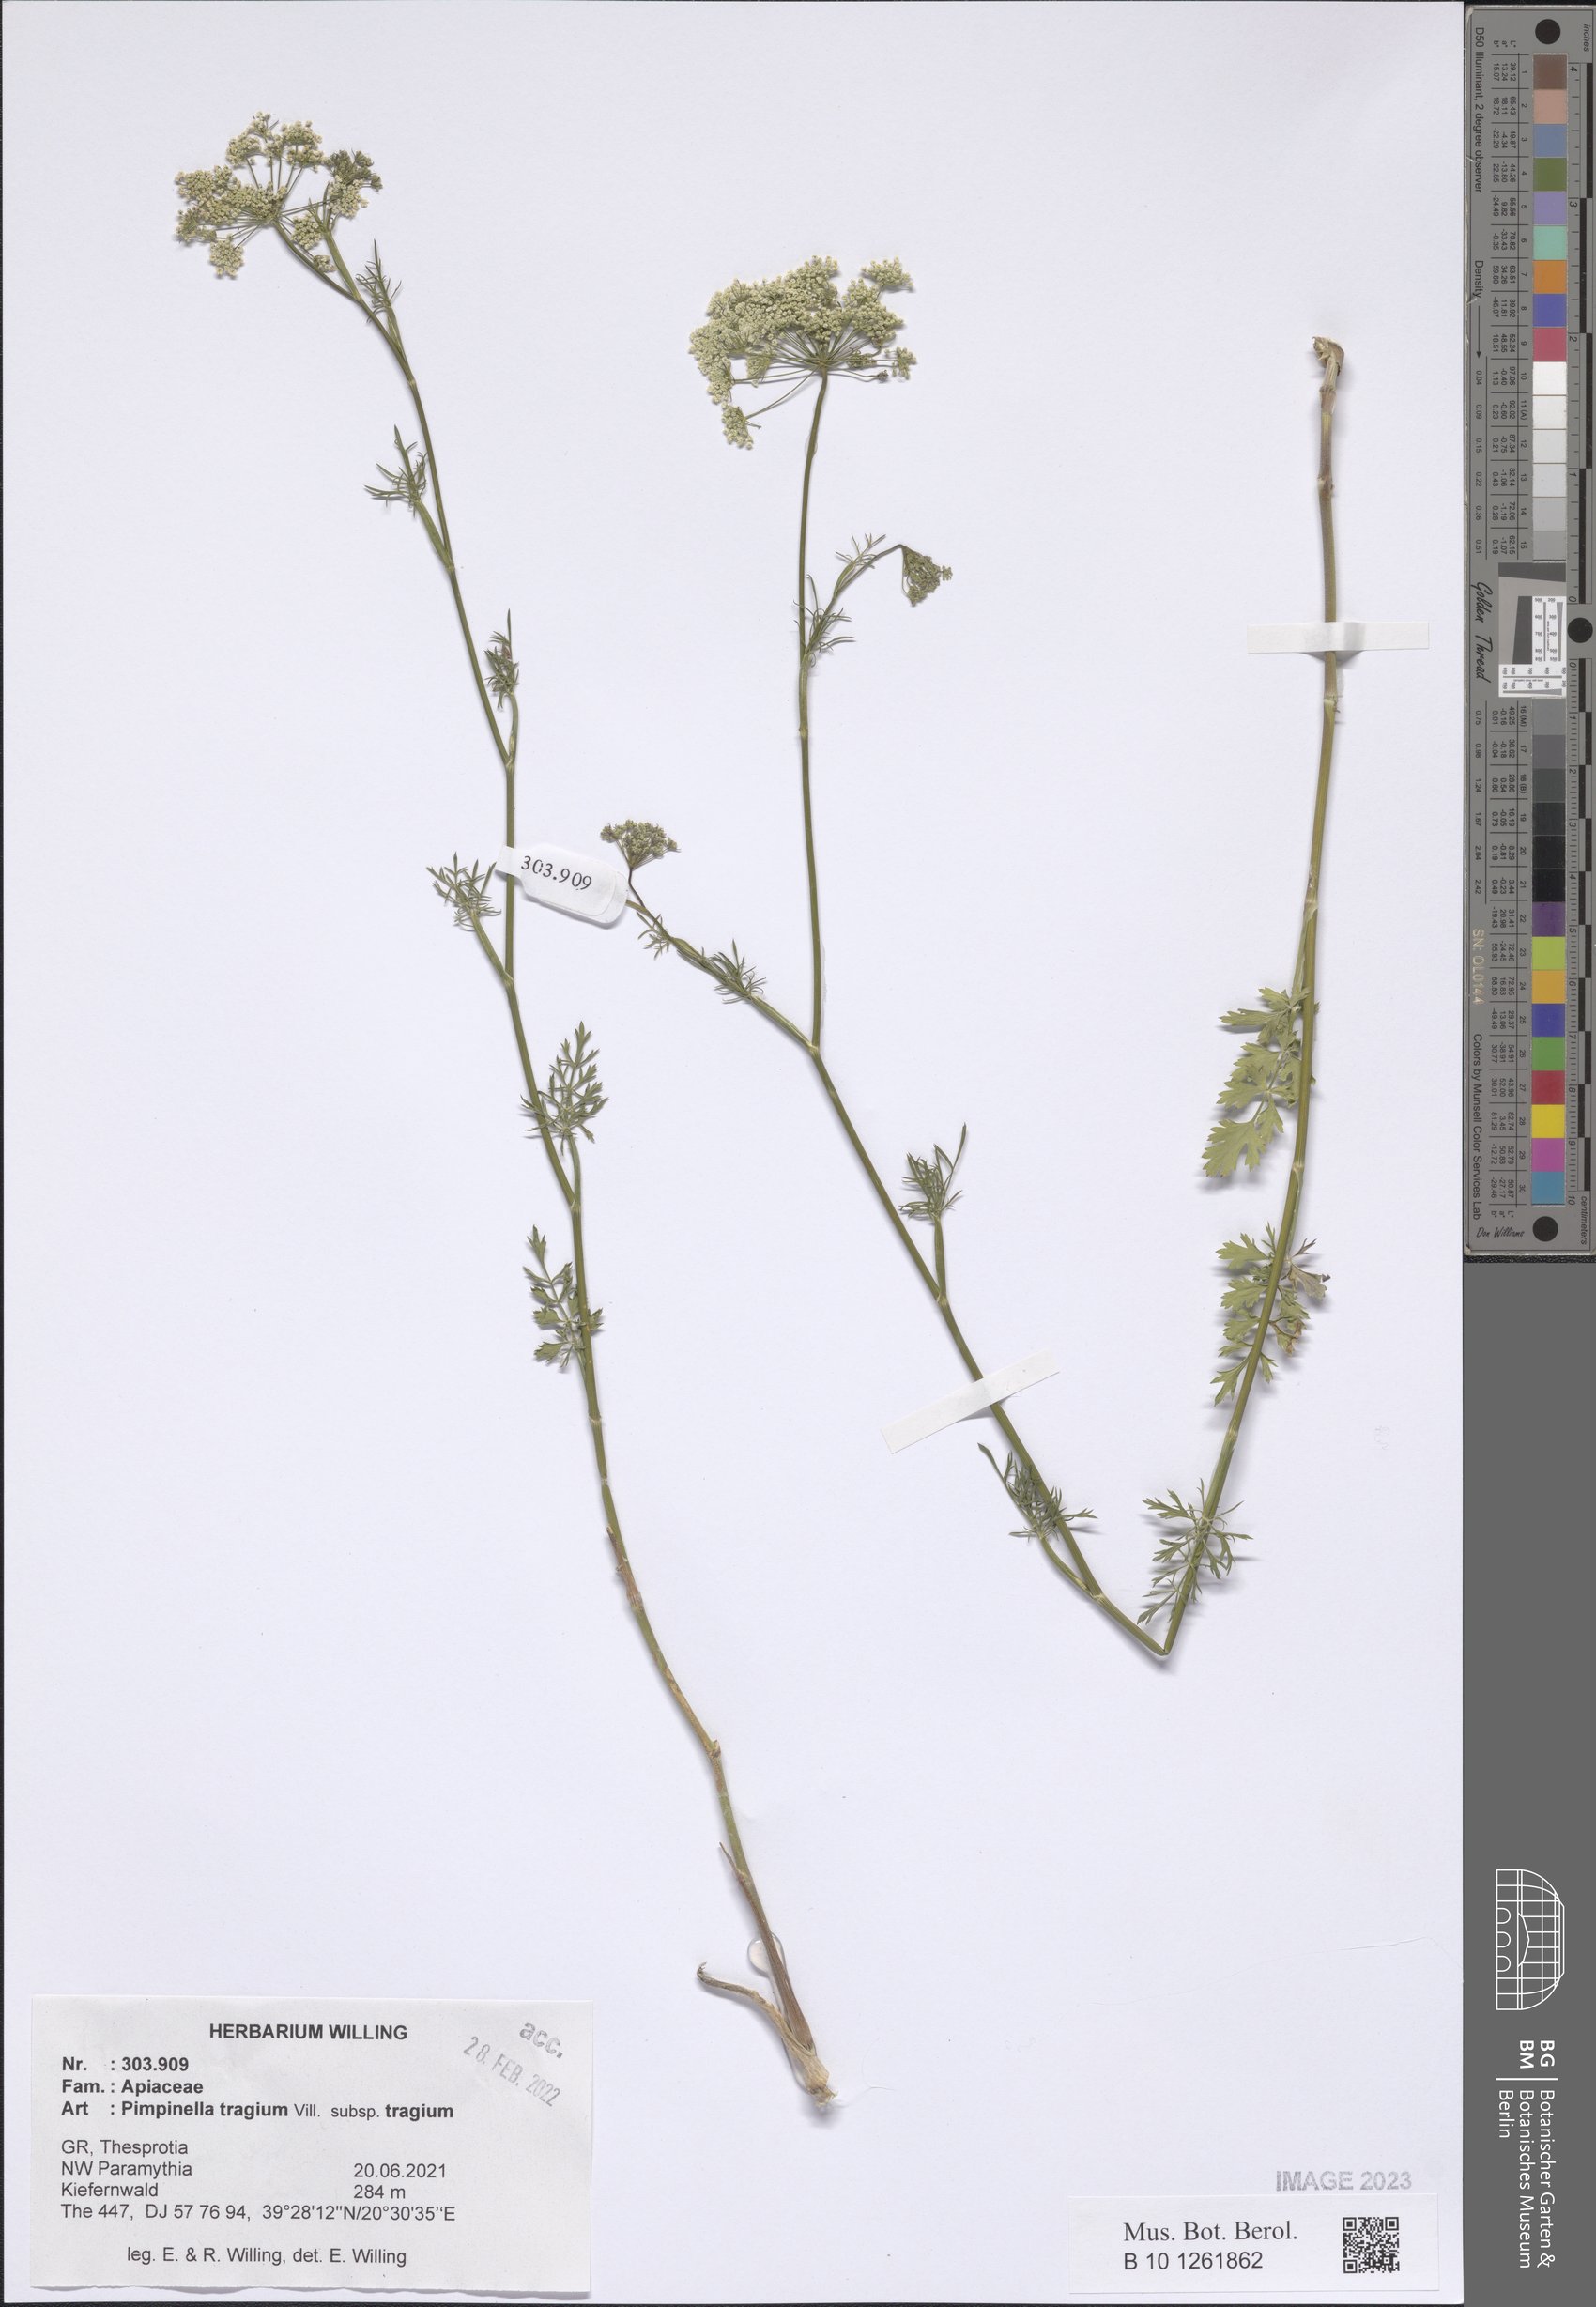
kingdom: Plantae
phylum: Tracheophyta
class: Magnoliopsida
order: Apiales
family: Apiaceae
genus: Pimpinella
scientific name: Pimpinella tragium
